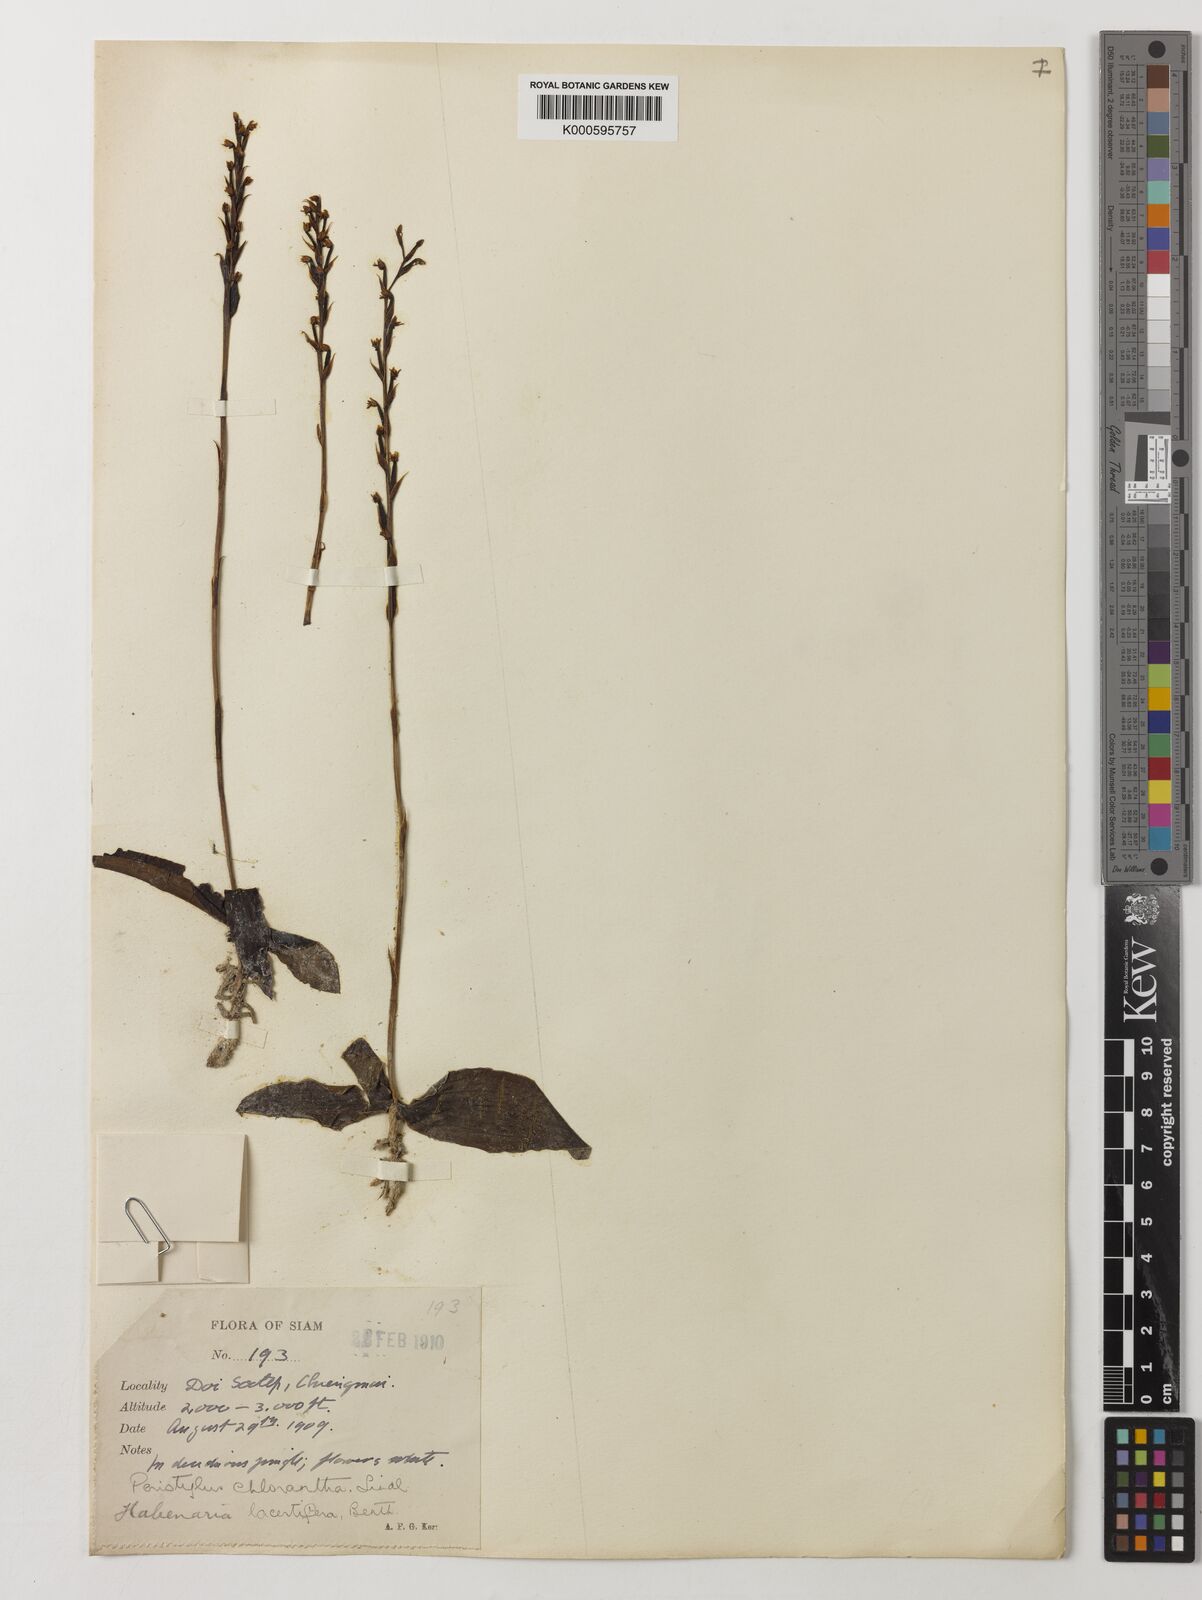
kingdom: Plantae
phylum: Tracheophyta
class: Liliopsida
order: Asparagales
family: Orchidaceae
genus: Peristylus
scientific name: Peristylus
